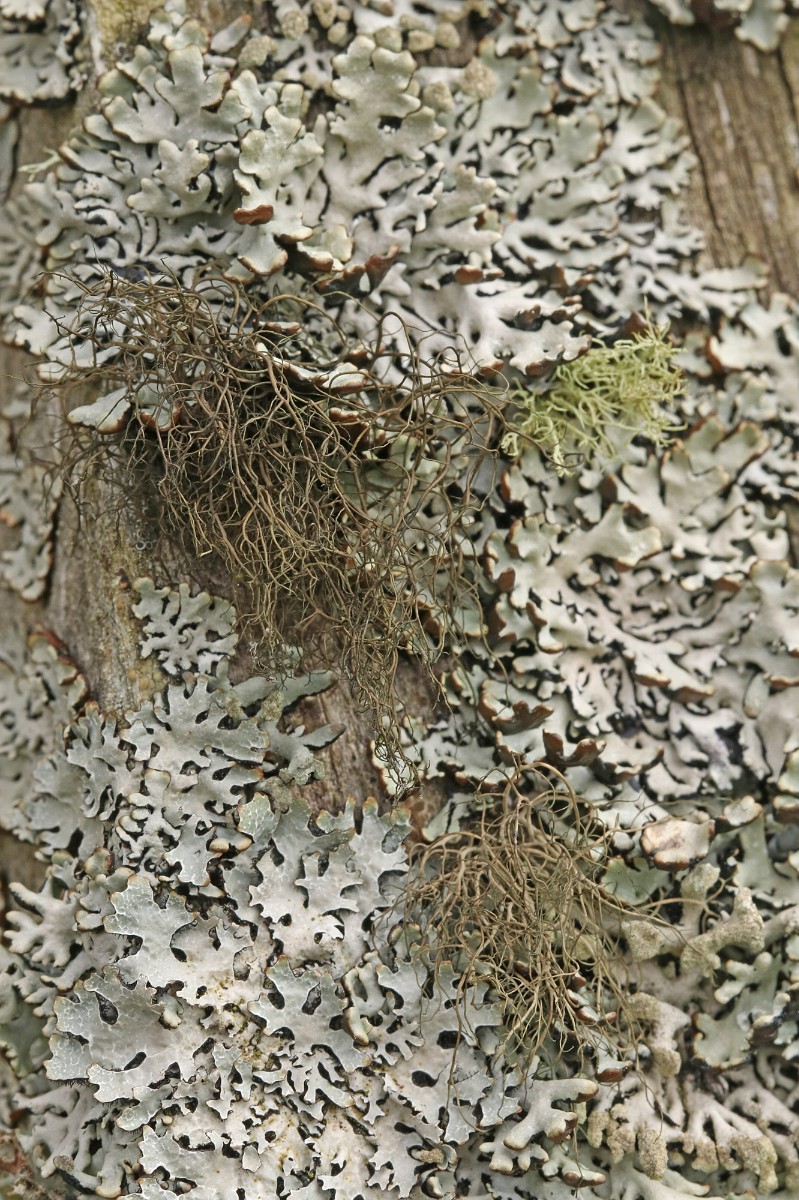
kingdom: Fungi
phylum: Ascomycota
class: Lecanoromycetes
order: Lecanorales
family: Parmeliaceae
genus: Bryoria
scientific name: Bryoria fuscescens
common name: almindelig mankelav
